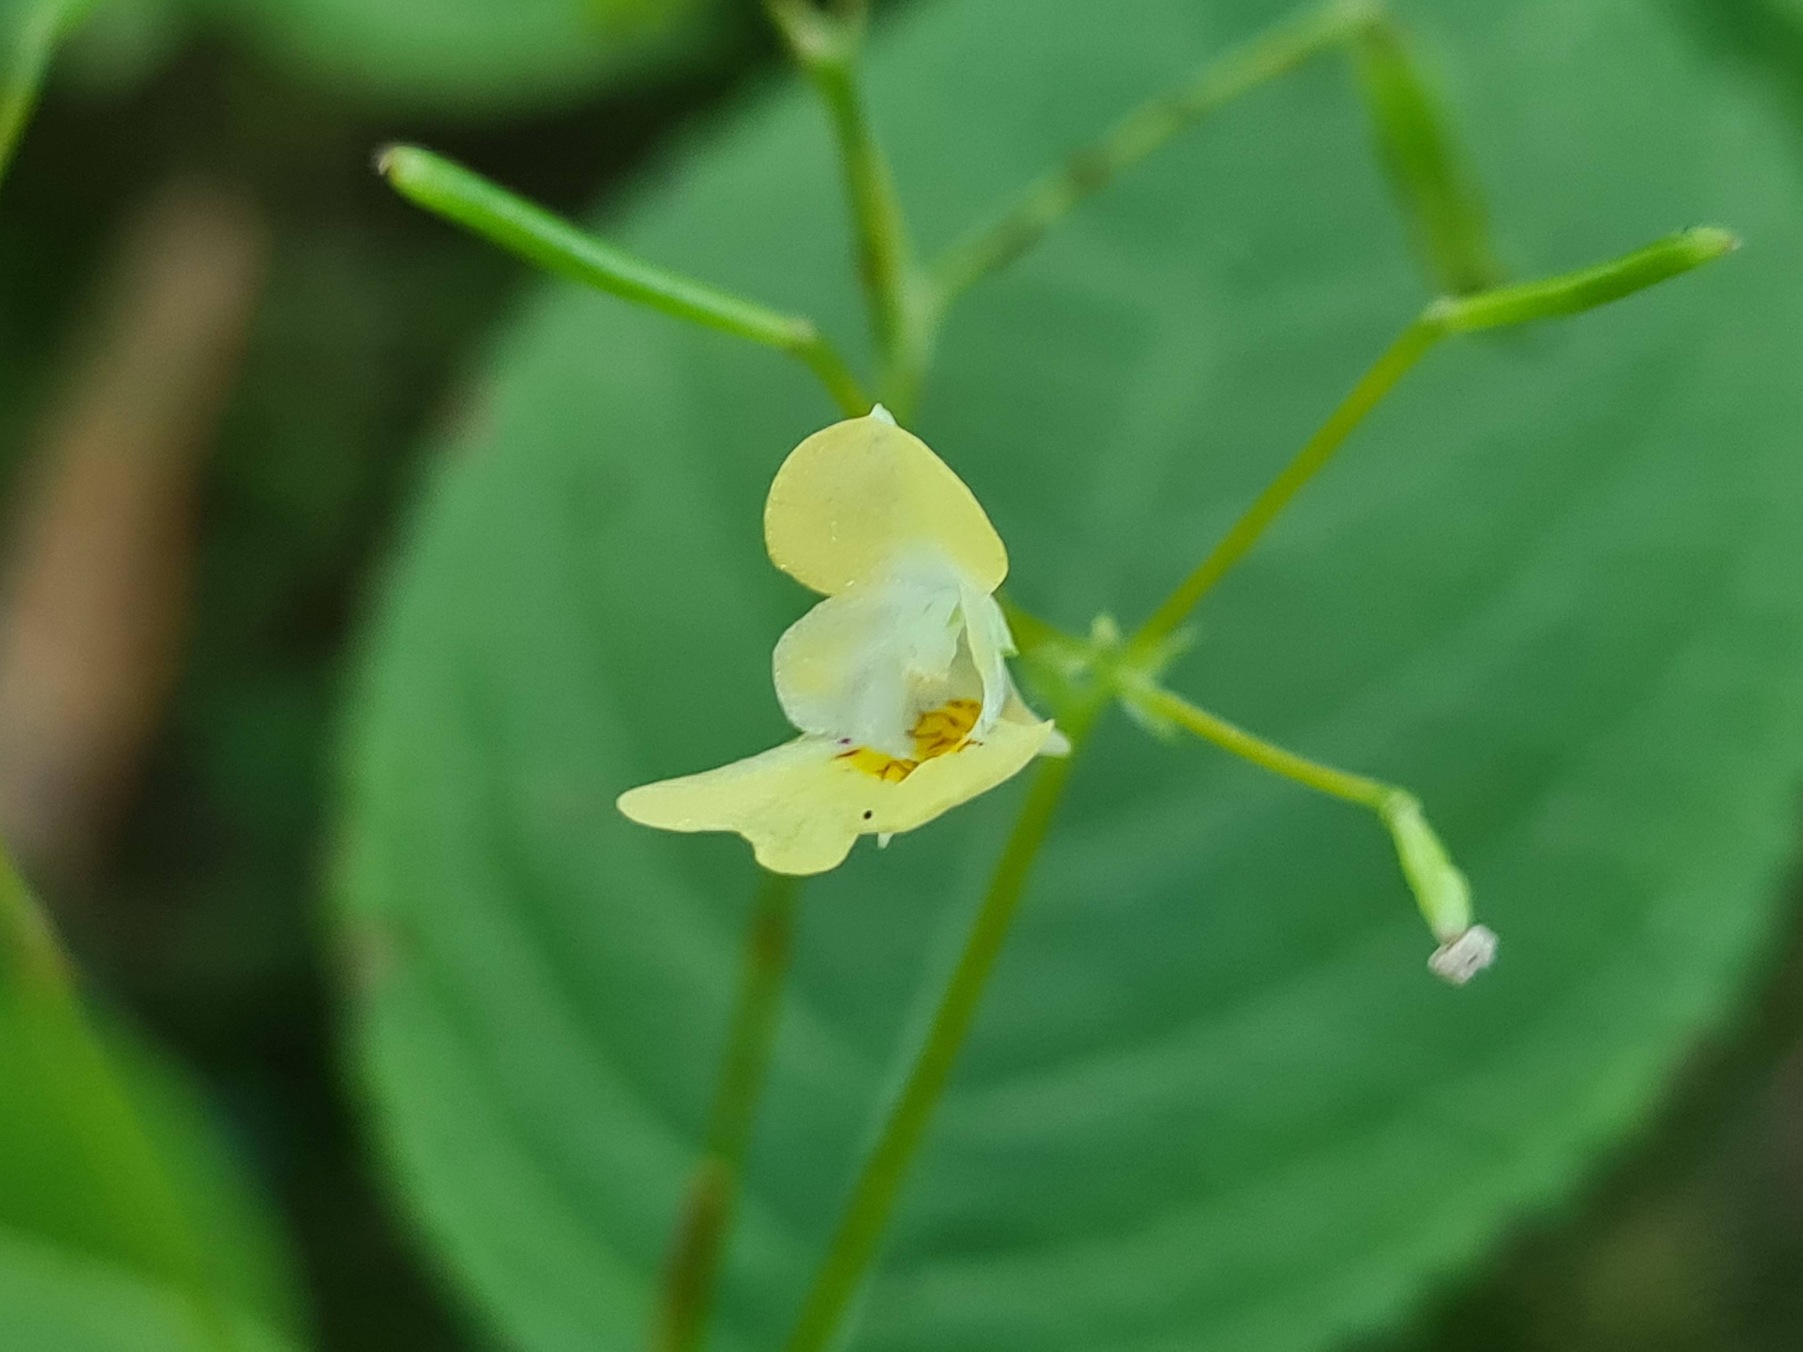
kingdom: Plantae
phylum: Tracheophyta
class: Magnoliopsida
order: Ericales
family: Balsaminaceae
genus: Impatiens
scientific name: Impatiens parviflora
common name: Småblomstret balsamin
